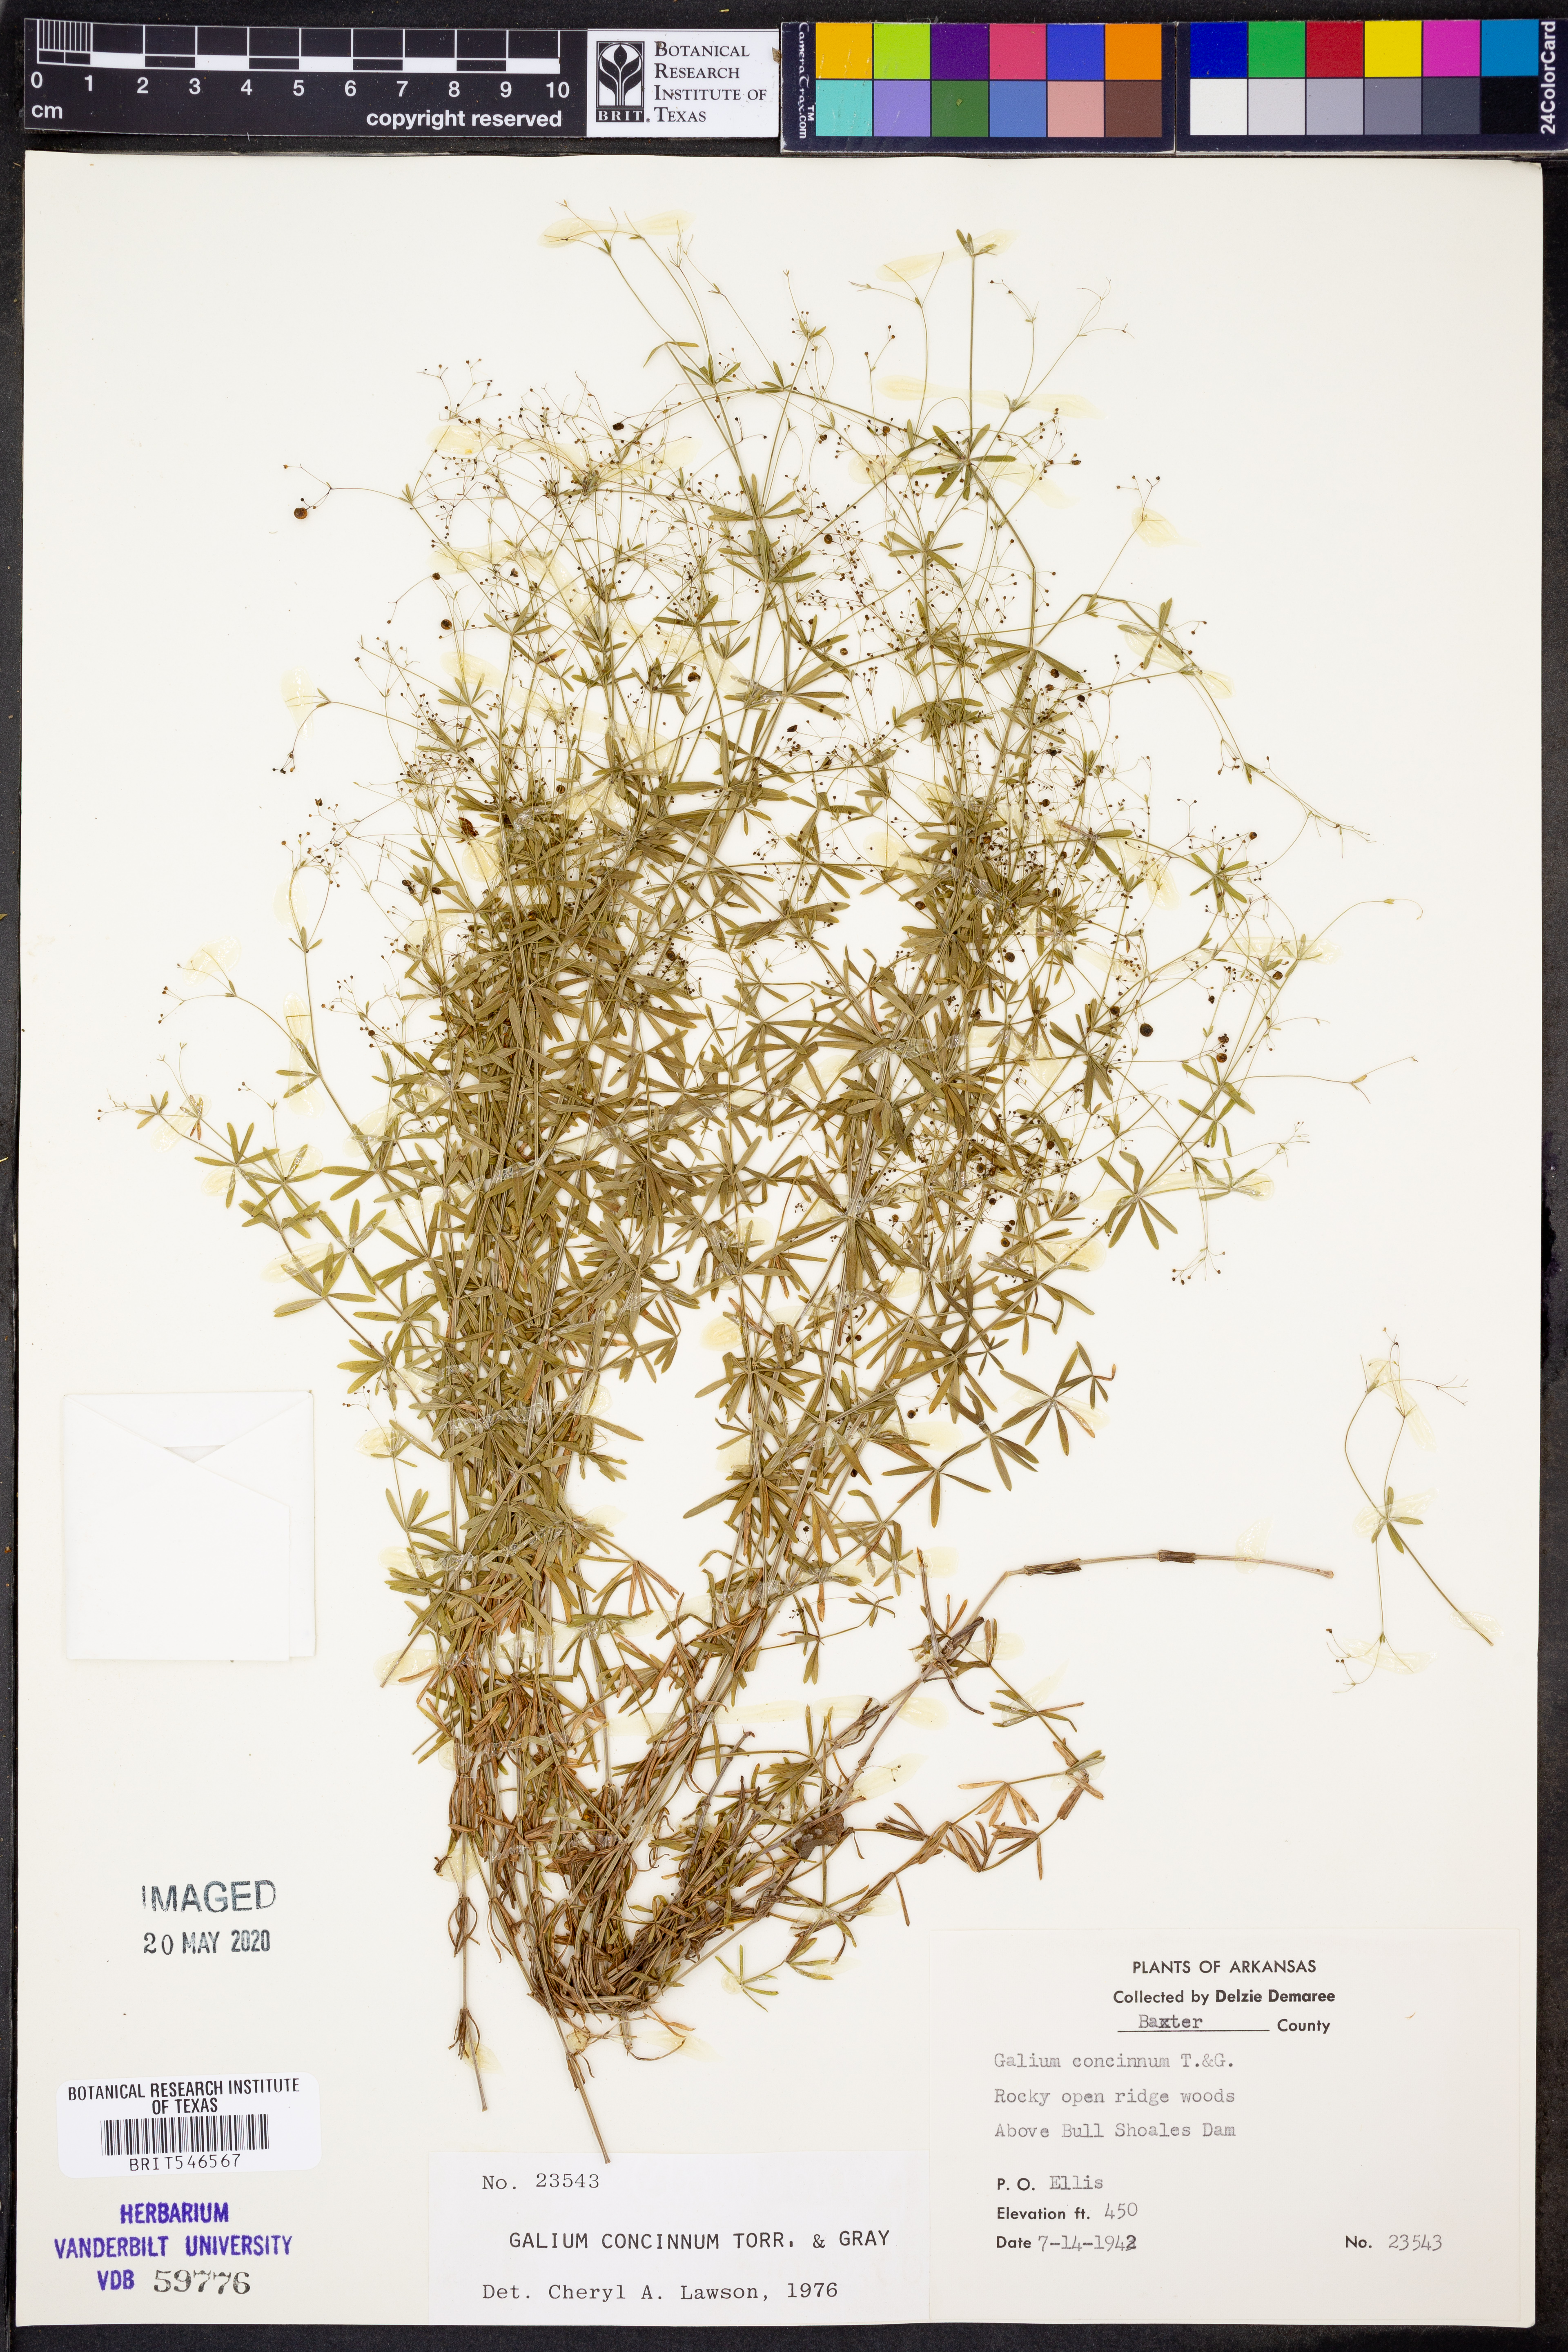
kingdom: Plantae
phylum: Tracheophyta
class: Magnoliopsida
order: Gentianales
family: Rubiaceae
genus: Galium
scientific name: Galium concinnum
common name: Shining bedstraw
